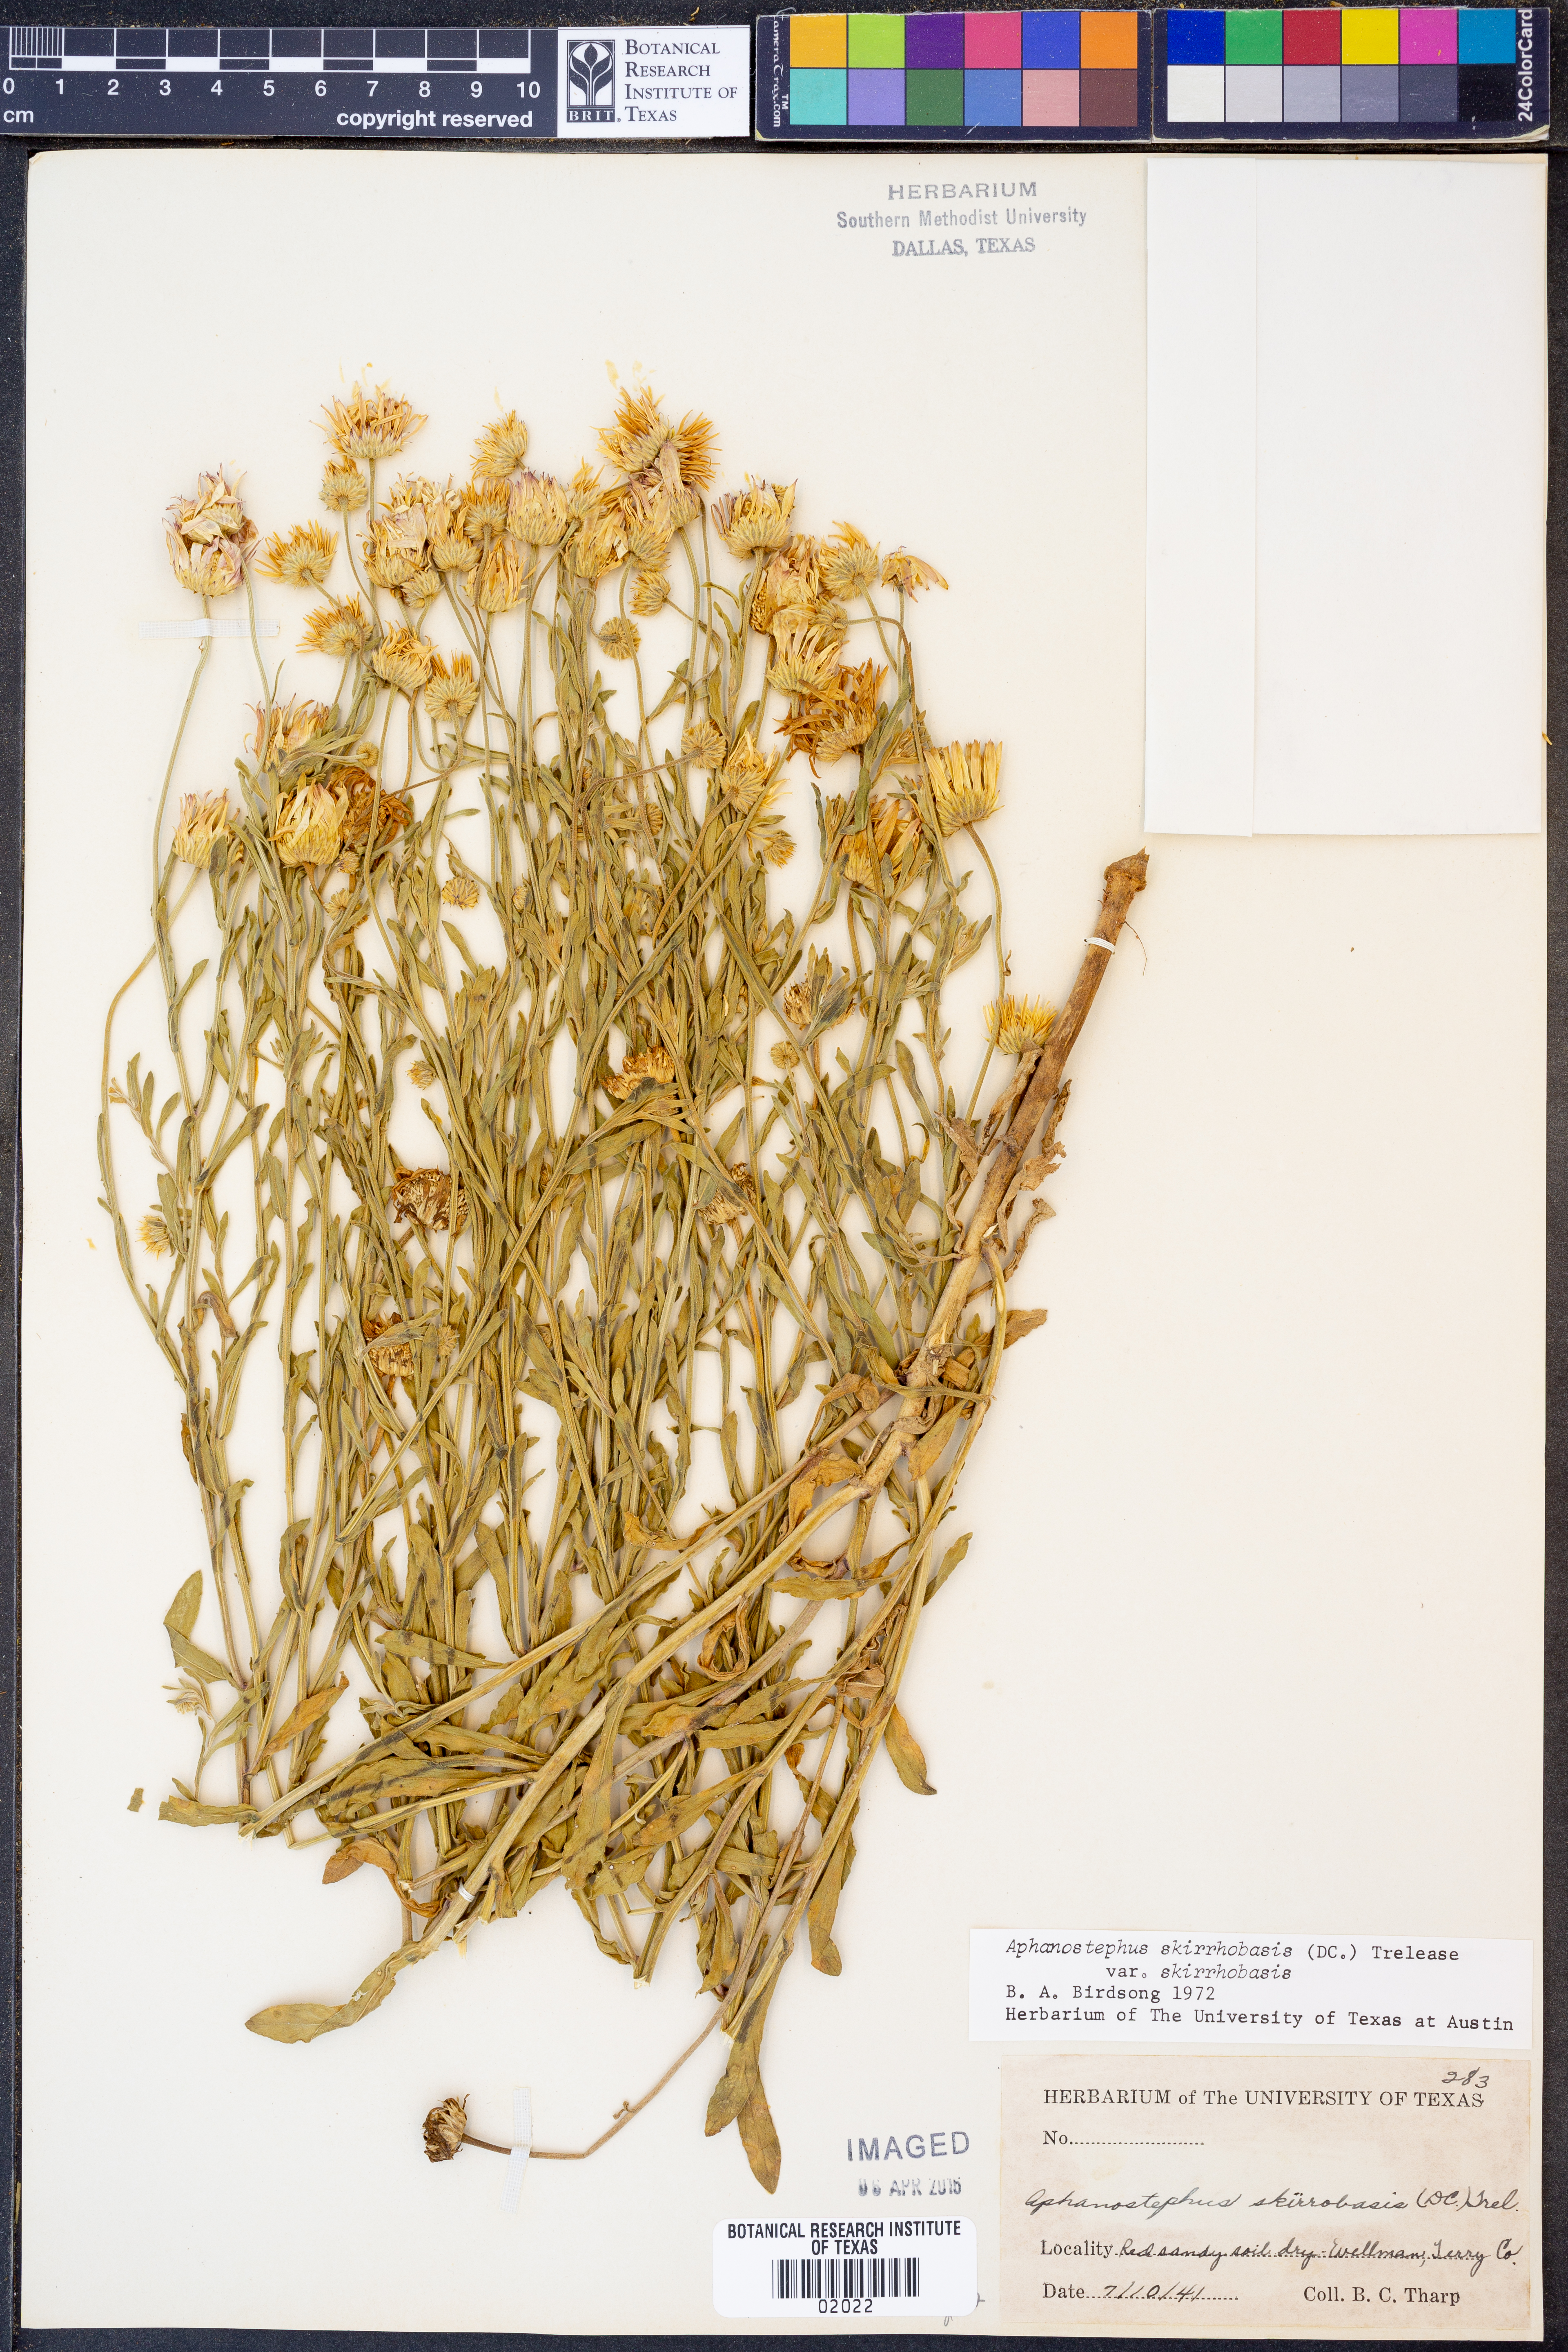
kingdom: Plantae
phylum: Tracheophyta
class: Magnoliopsida
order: Asterales
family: Asteraceae
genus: Aphanostephus
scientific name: Aphanostephus skirrhobasis
